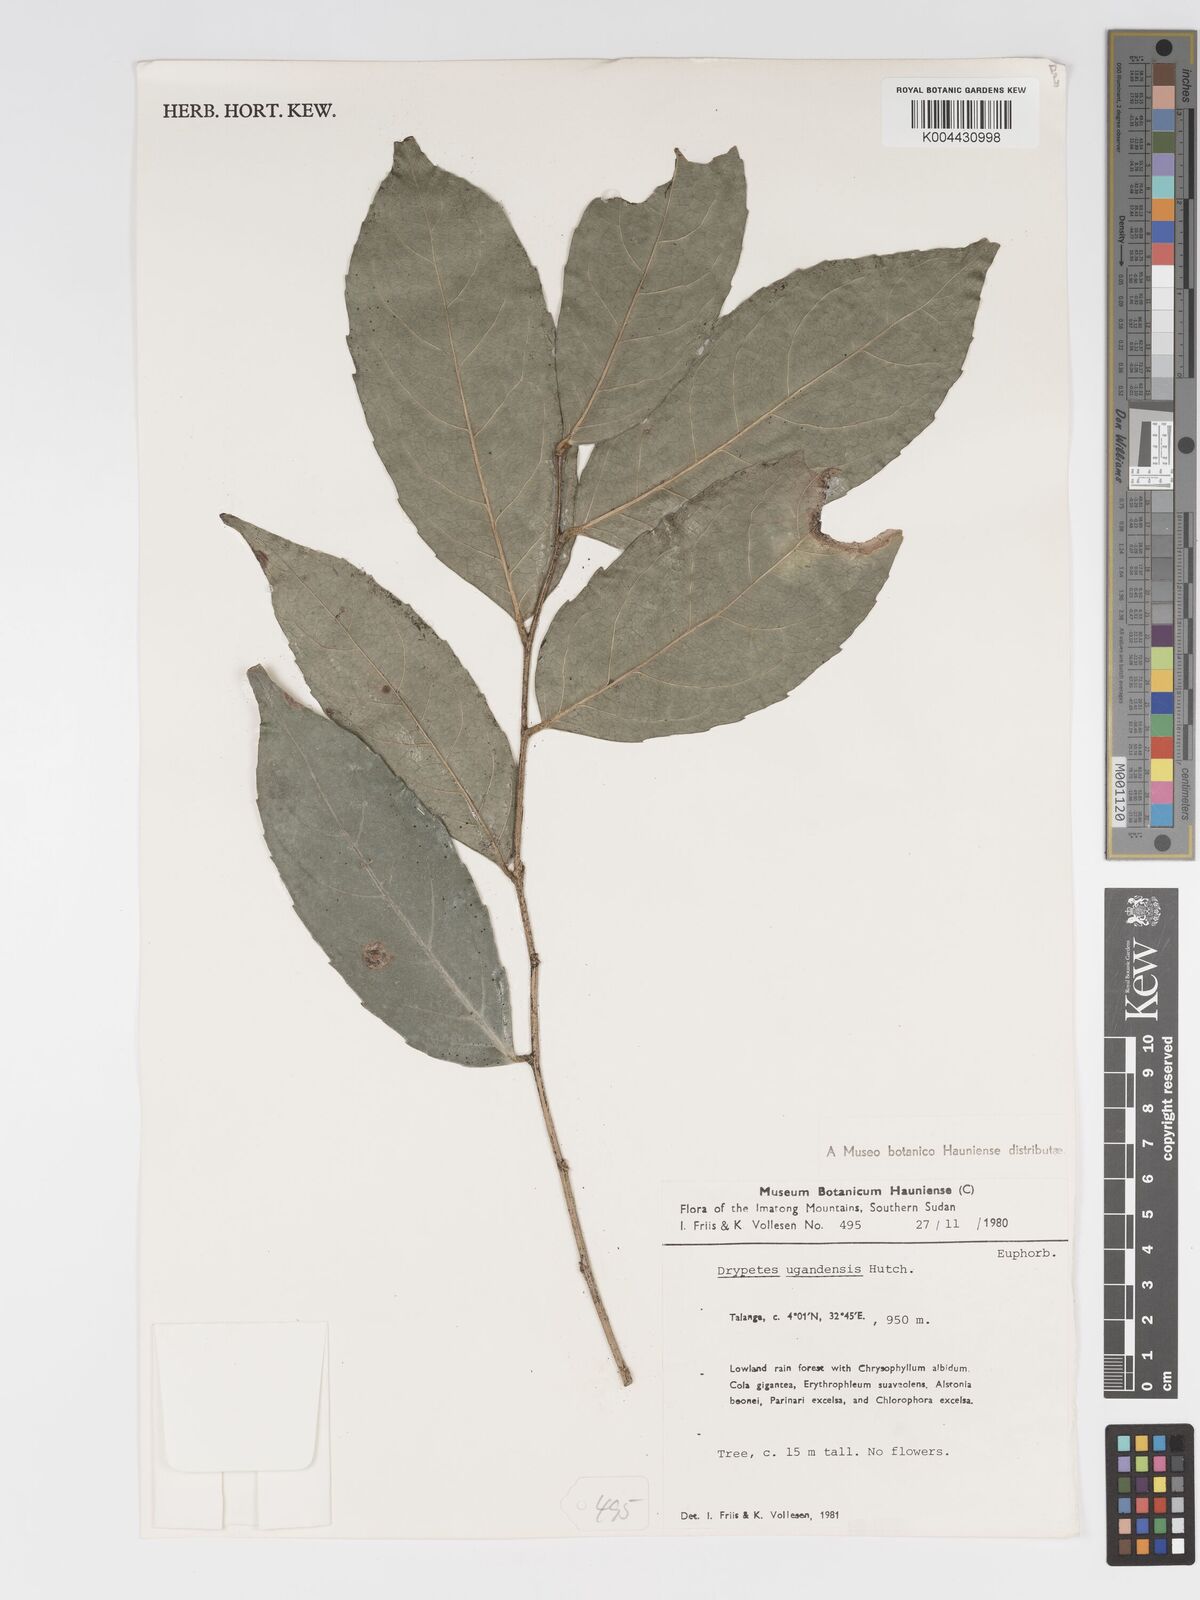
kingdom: Plantae
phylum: Tracheophyta
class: Magnoliopsida
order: Malpighiales
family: Putranjivaceae
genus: Drypetes
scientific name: Drypetes ugandensis
